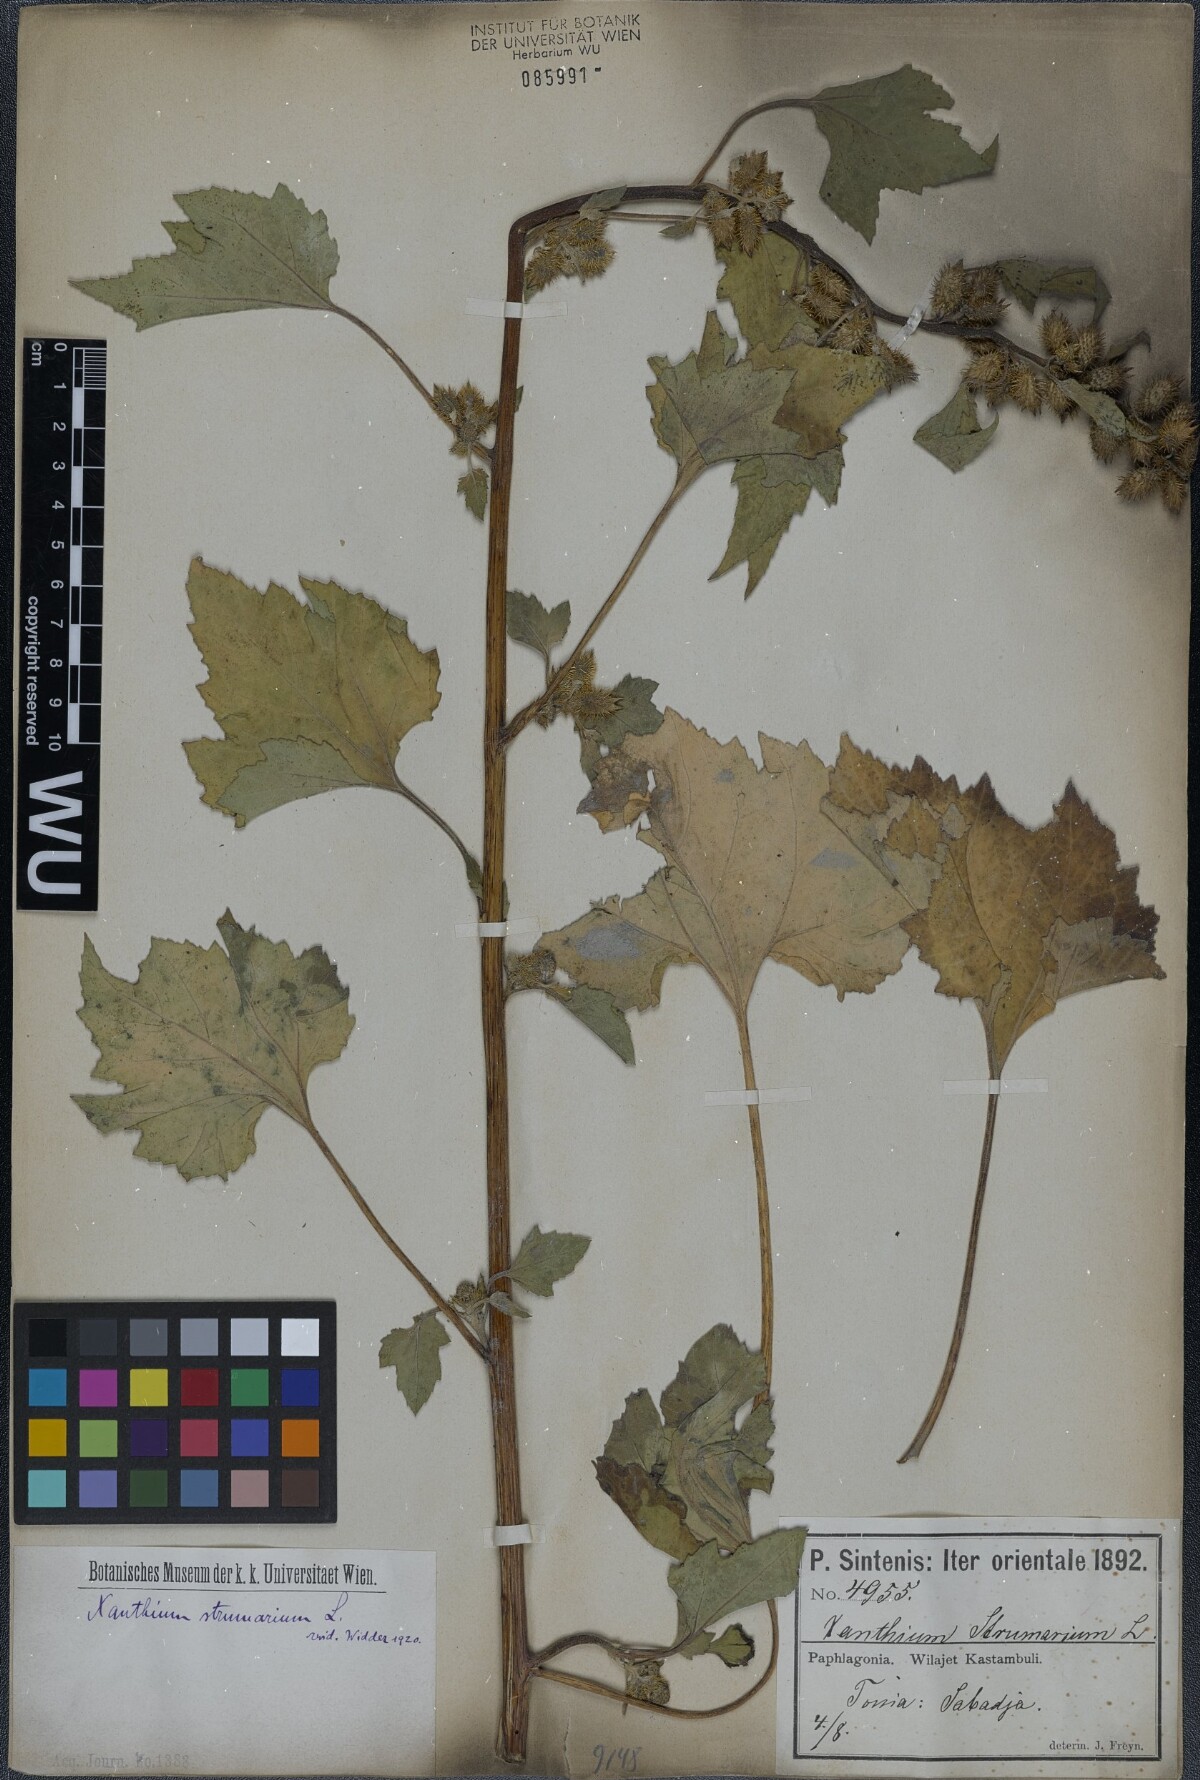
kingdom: Plantae
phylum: Tracheophyta
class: Magnoliopsida
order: Asterales
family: Asteraceae
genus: Xanthium
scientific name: Xanthium strumarium
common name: Rough cocklebur
